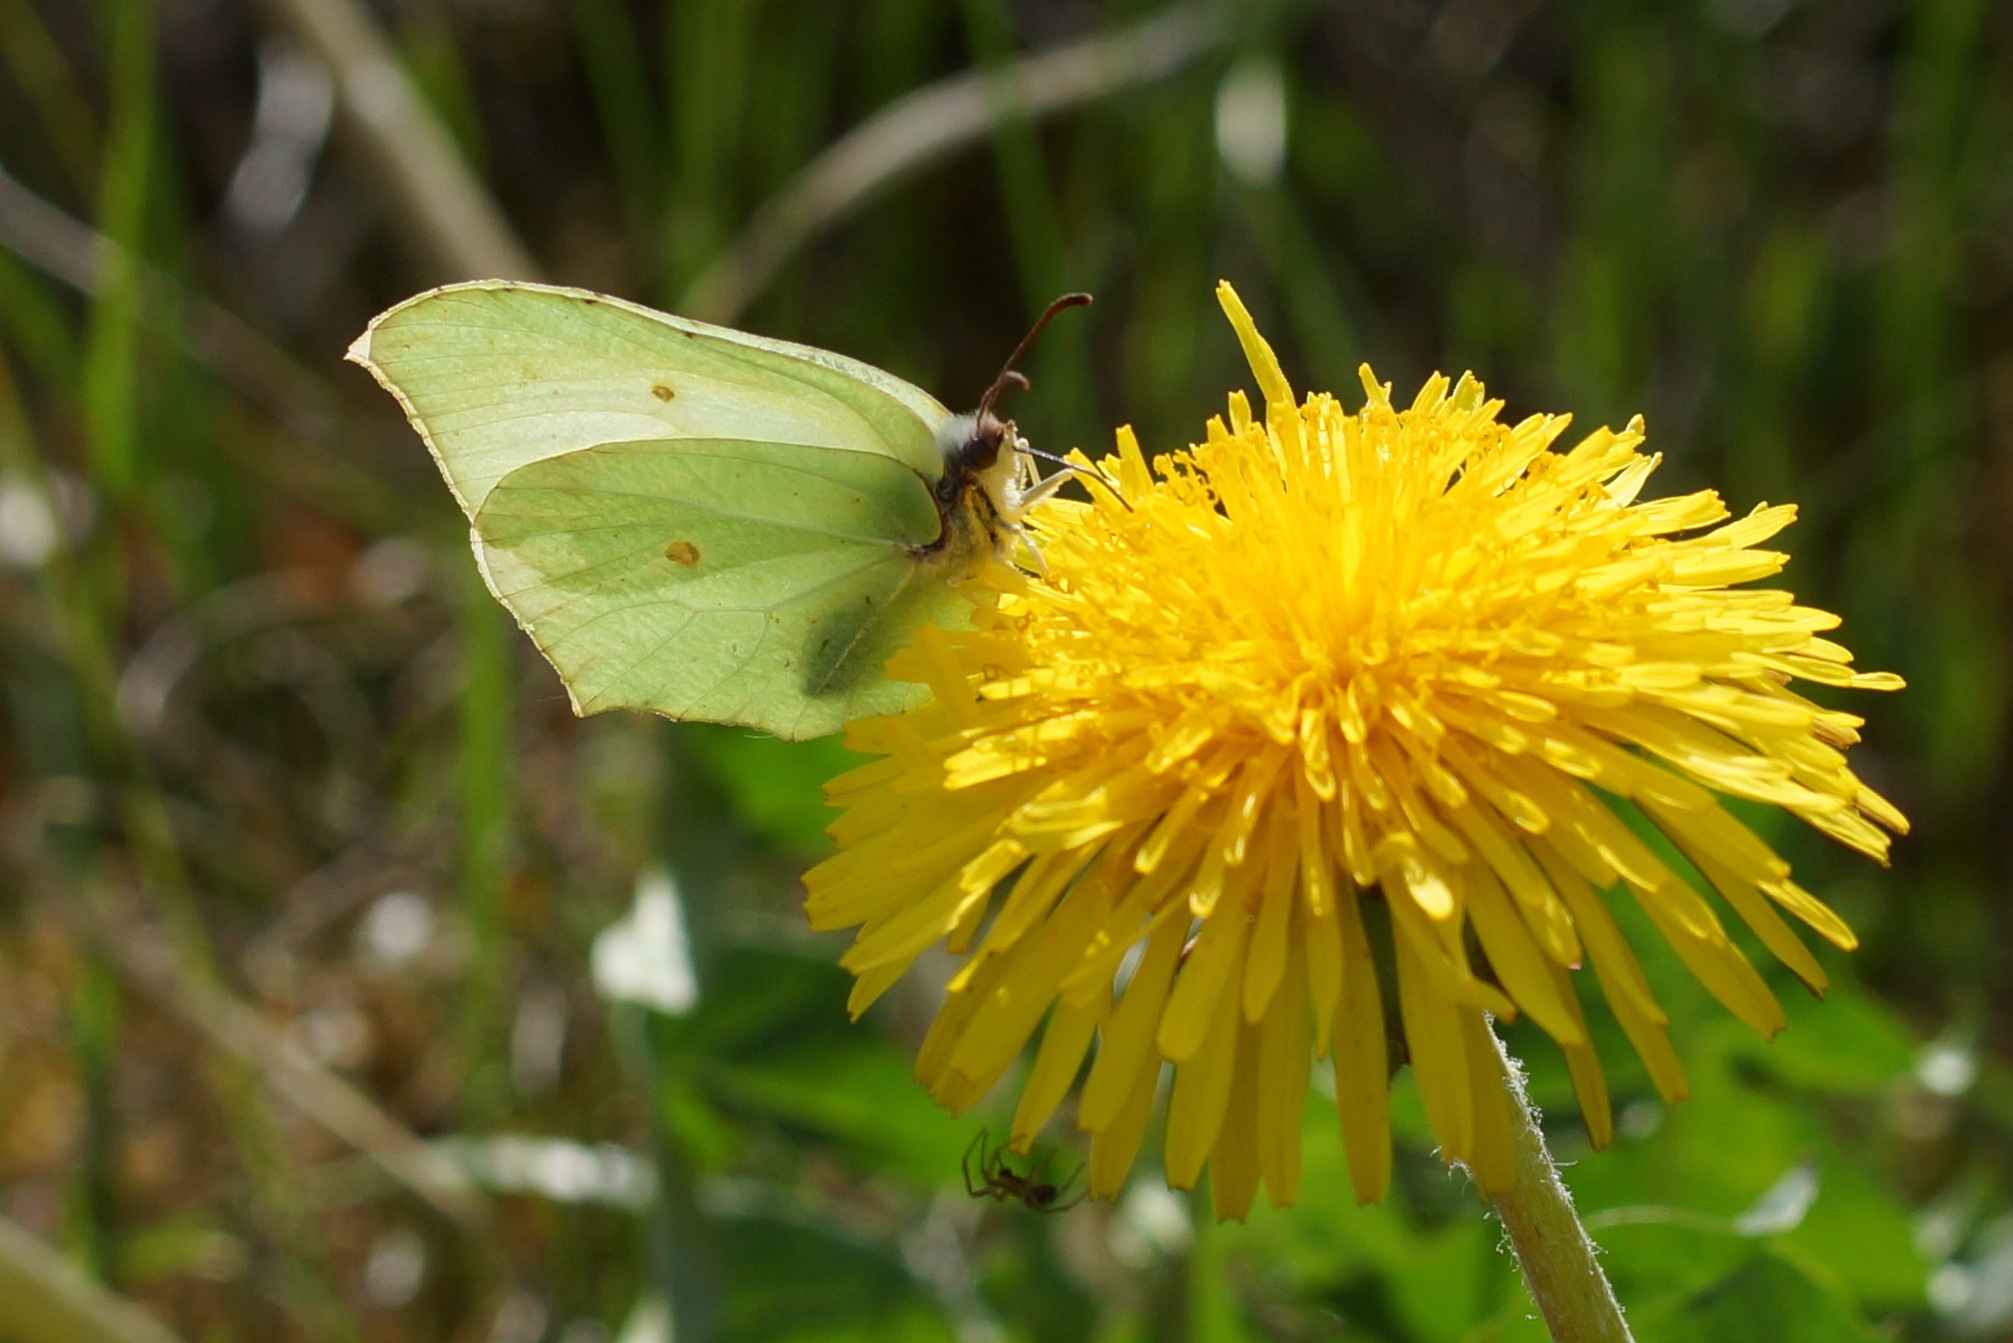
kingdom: Animalia
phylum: Arthropoda
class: Insecta
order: Lepidoptera
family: Pieridae
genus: Gonepteryx
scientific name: Gonepteryx rhamni
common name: Citronsommerfugl
